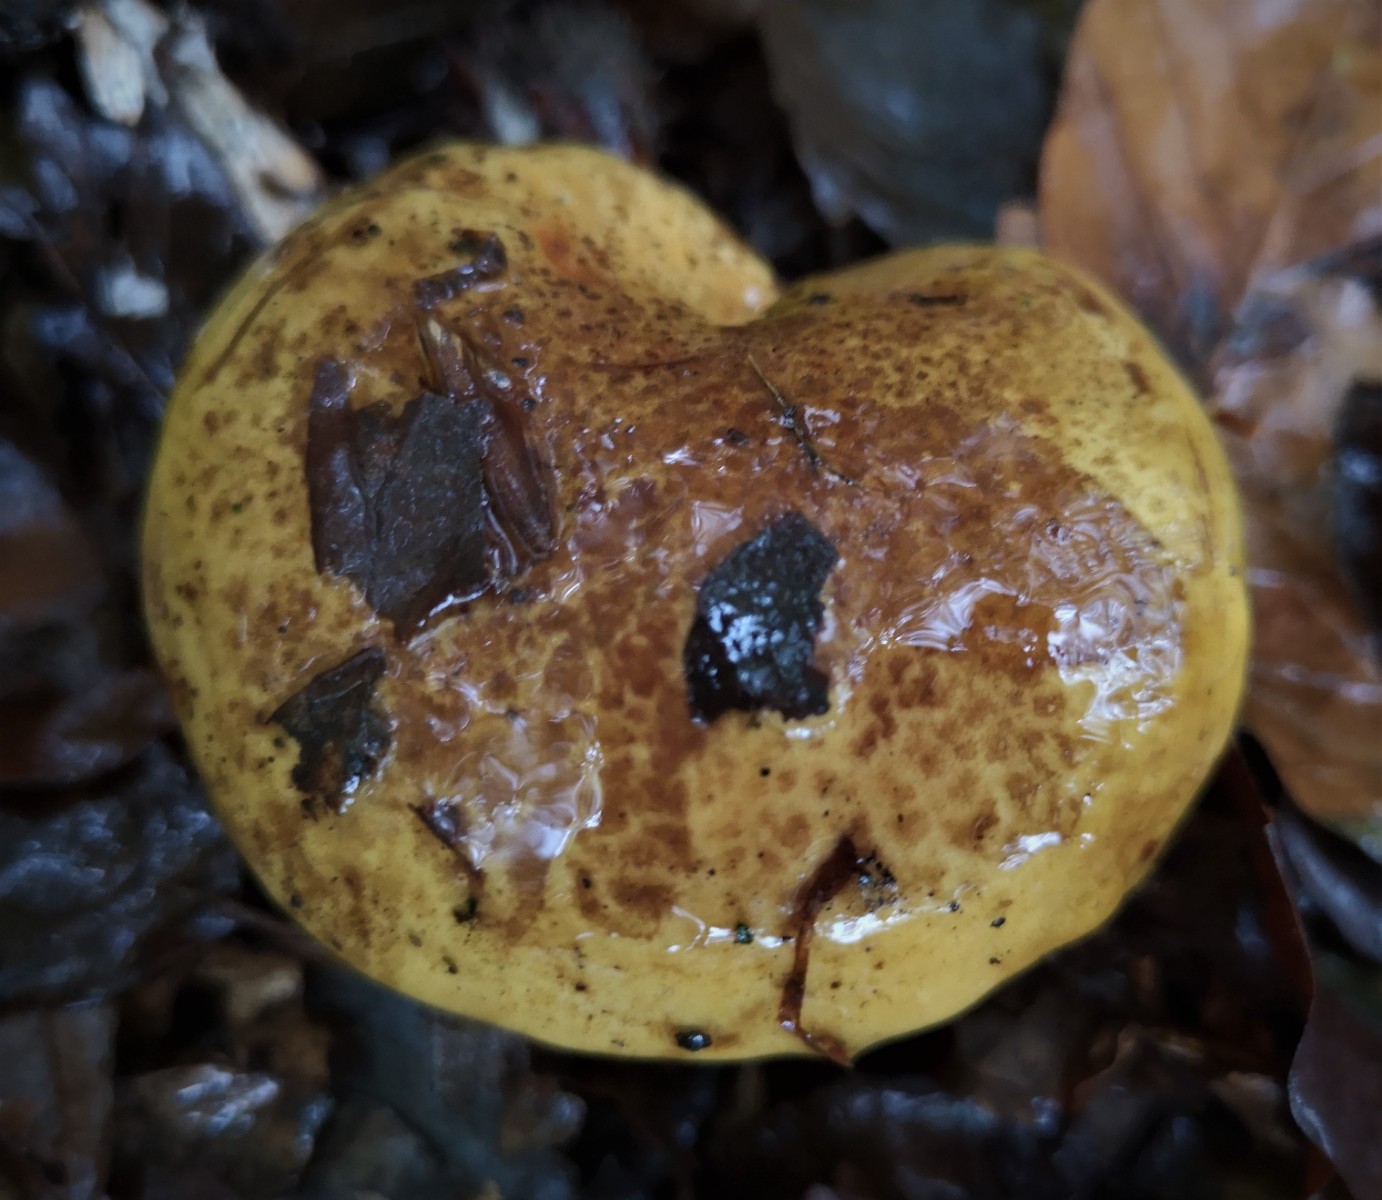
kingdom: Fungi
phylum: Basidiomycota
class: Agaricomycetes
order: Agaricales
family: Cortinariaceae
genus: Calonarius
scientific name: Calonarius alcalinophilus
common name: gyldenbrun slørhat
